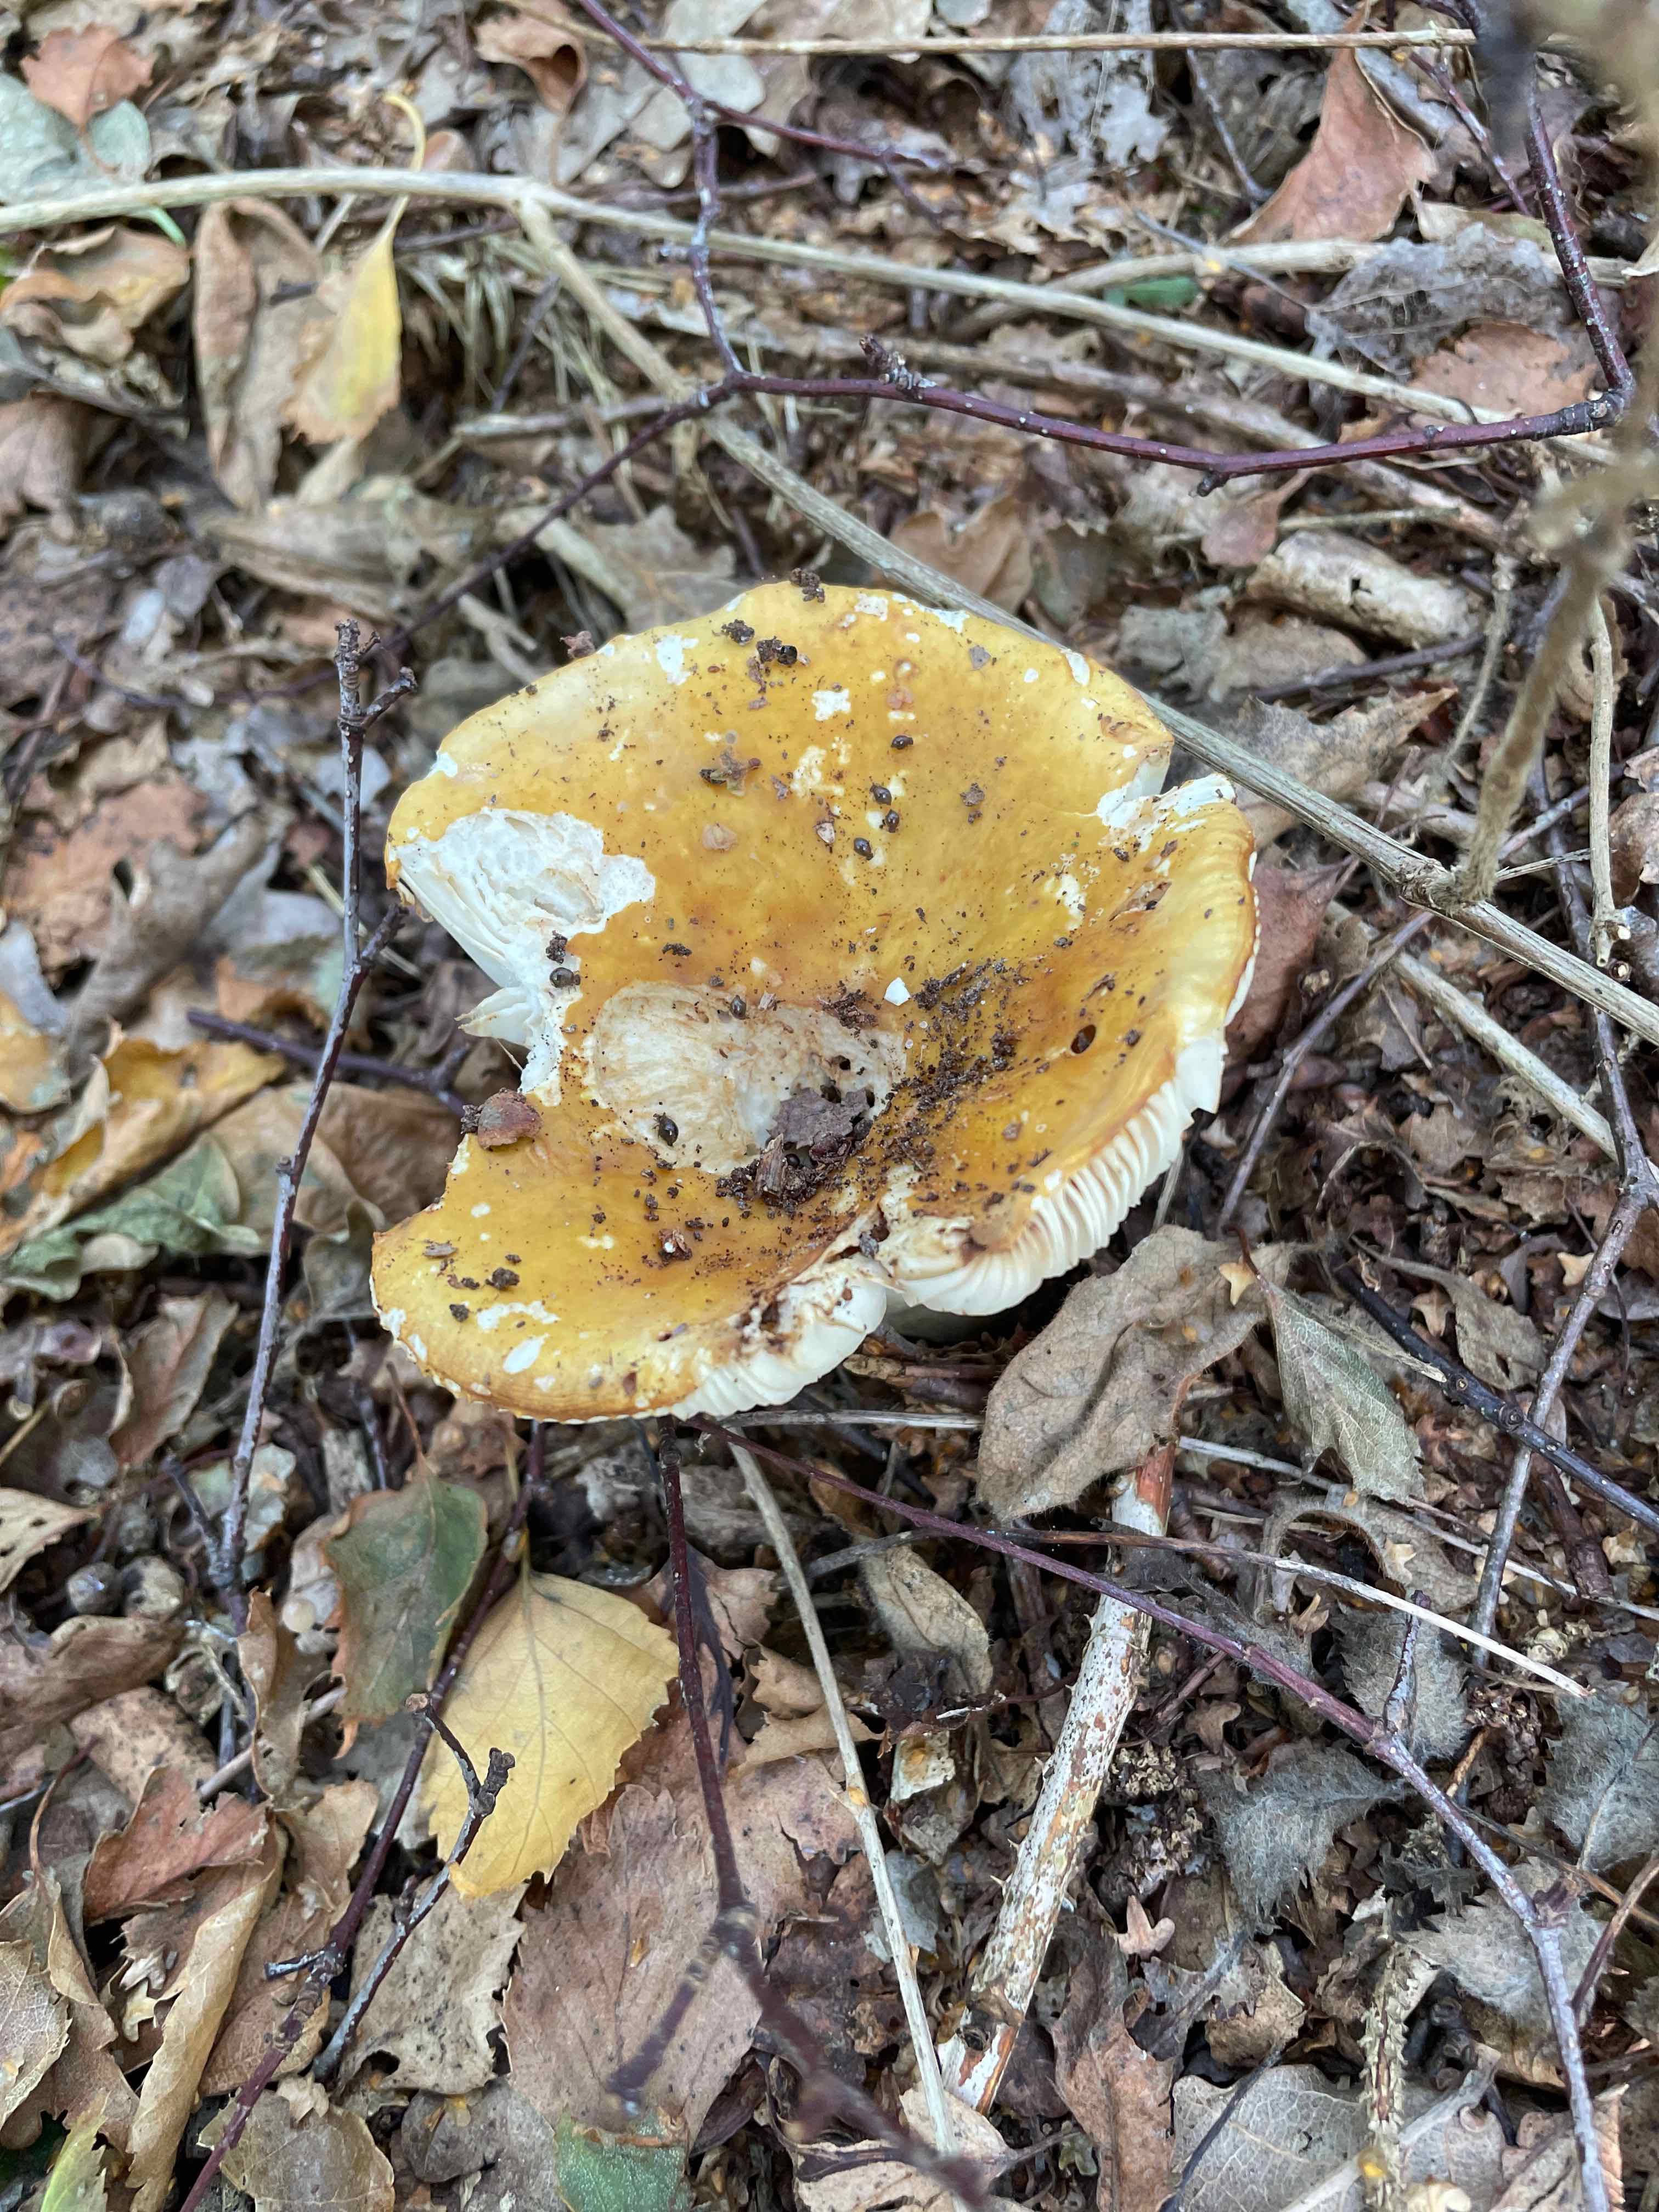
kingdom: Fungi
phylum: Basidiomycota
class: Agaricomycetes
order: Russulales
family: Russulaceae
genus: Russula
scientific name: Russula ochroleuca
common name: okkergul skørhat
